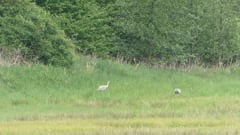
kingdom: Animalia
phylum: Chordata
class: Aves
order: Gruiformes
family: Gruidae
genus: Grus
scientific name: Grus grus
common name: Common crane
